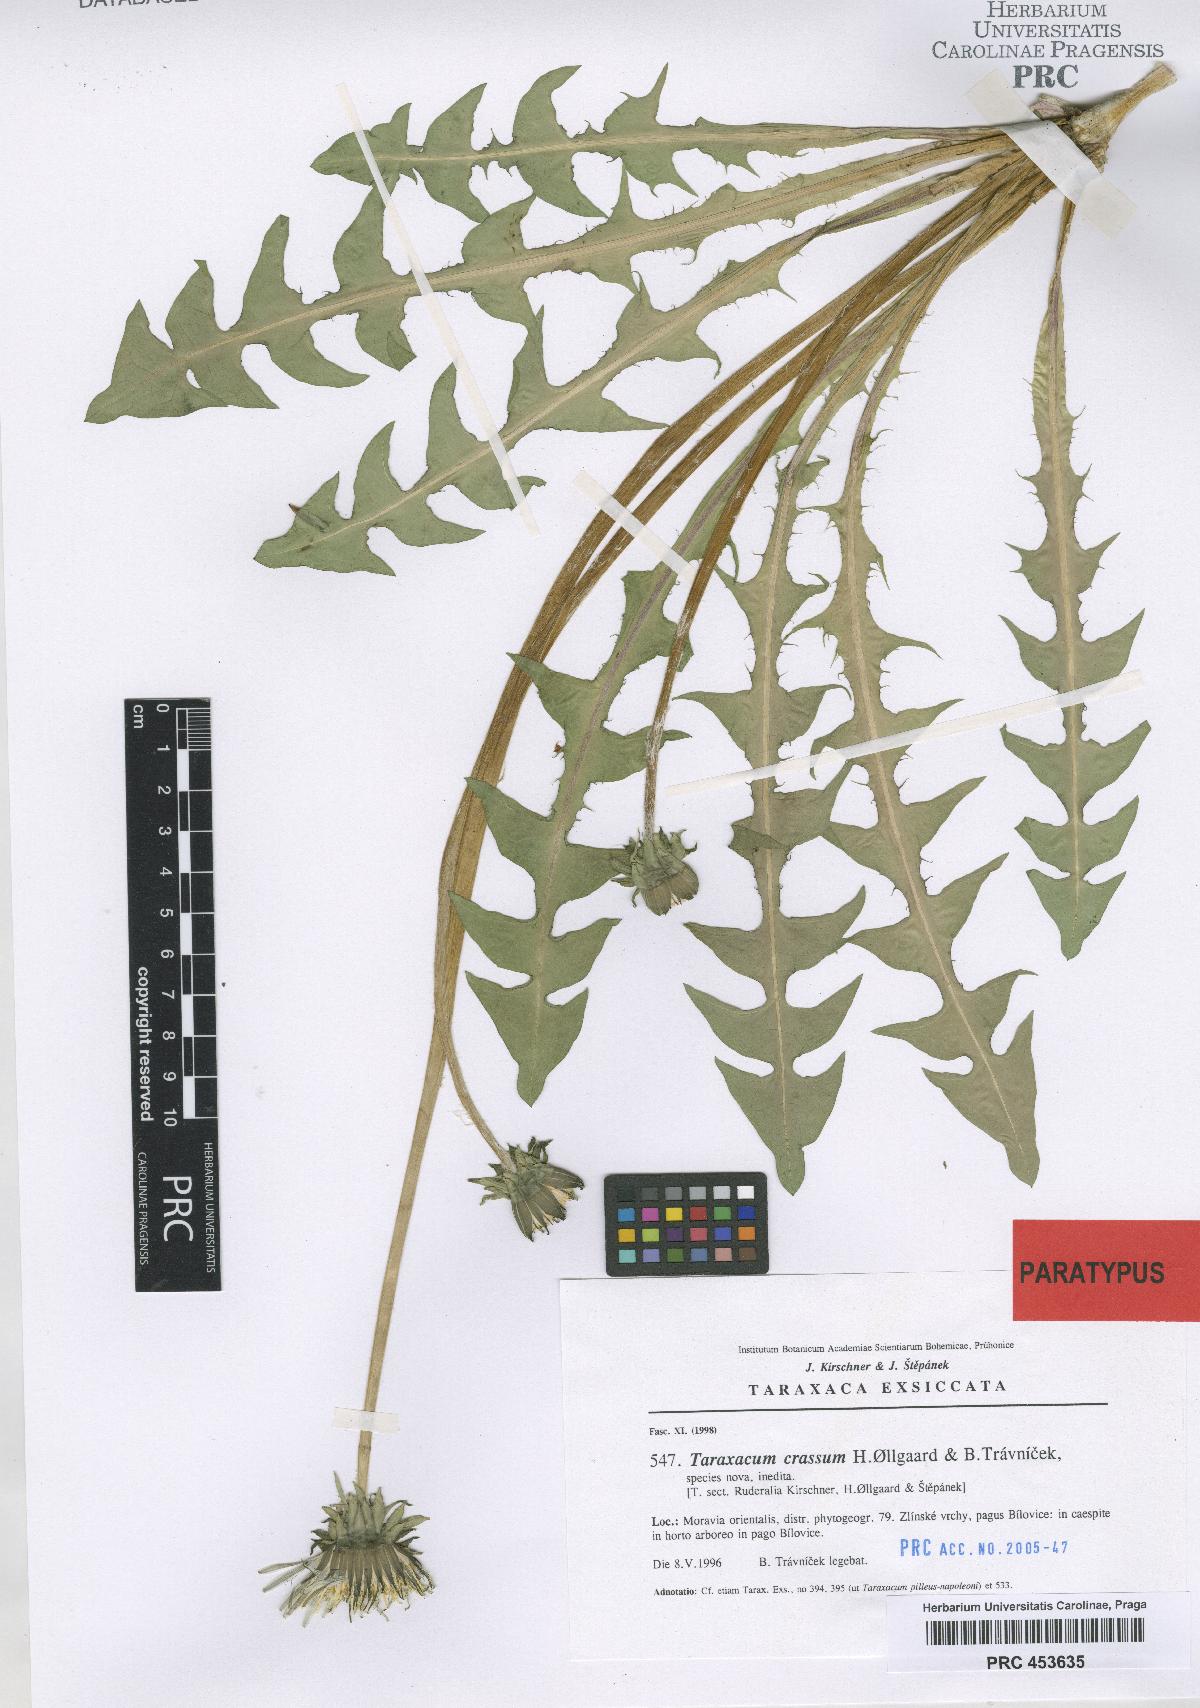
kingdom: Plantae
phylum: Tracheophyta
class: Magnoliopsida
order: Asterales
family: Asteraceae
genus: Taraxacum
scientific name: Taraxacum crassum
